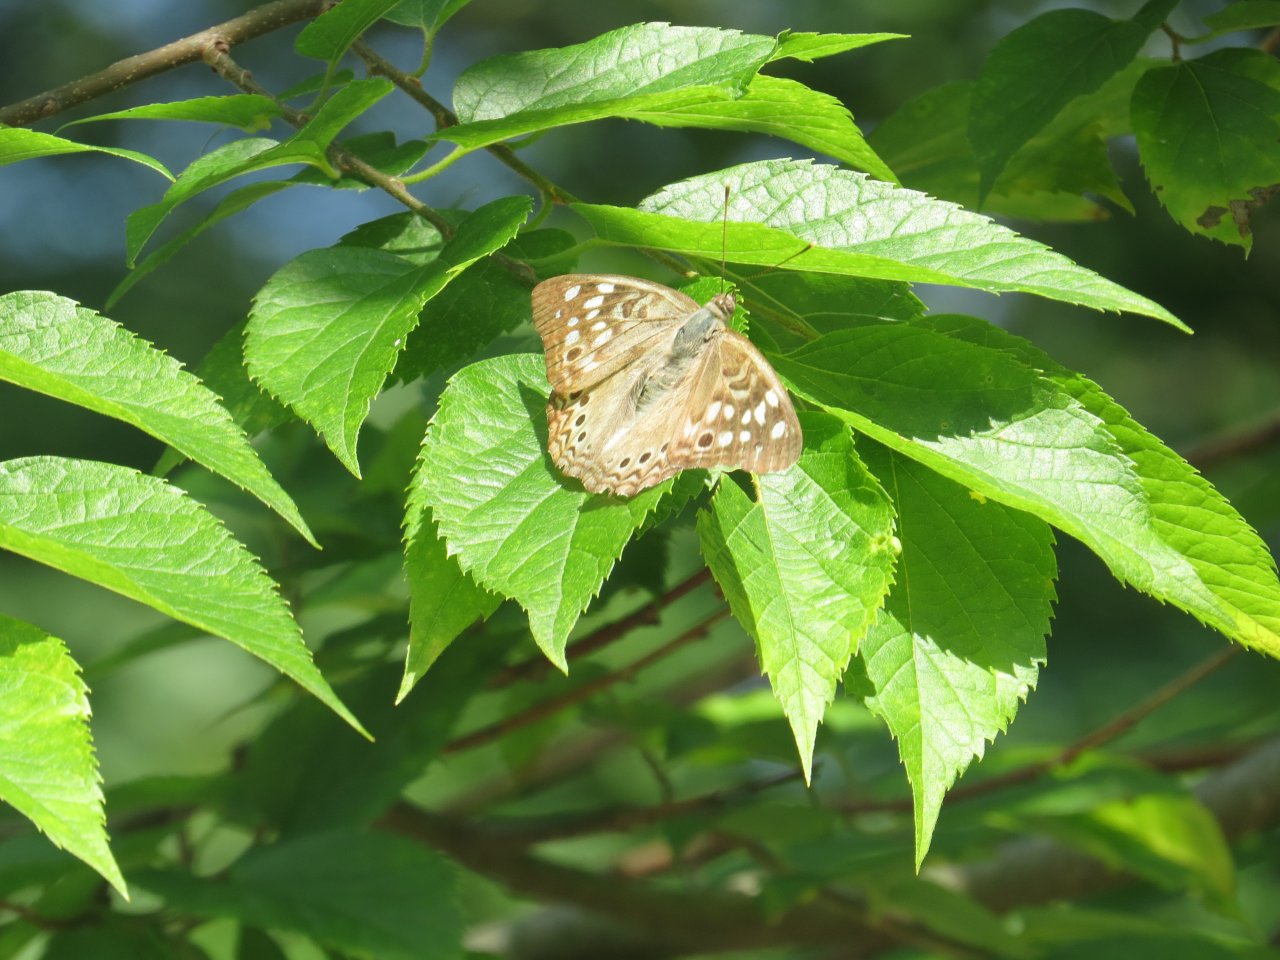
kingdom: Animalia
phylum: Arthropoda
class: Insecta
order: Lepidoptera
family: Nymphalidae
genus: Asterocampa
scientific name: Asterocampa celtis
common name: Hackberry Emperor
